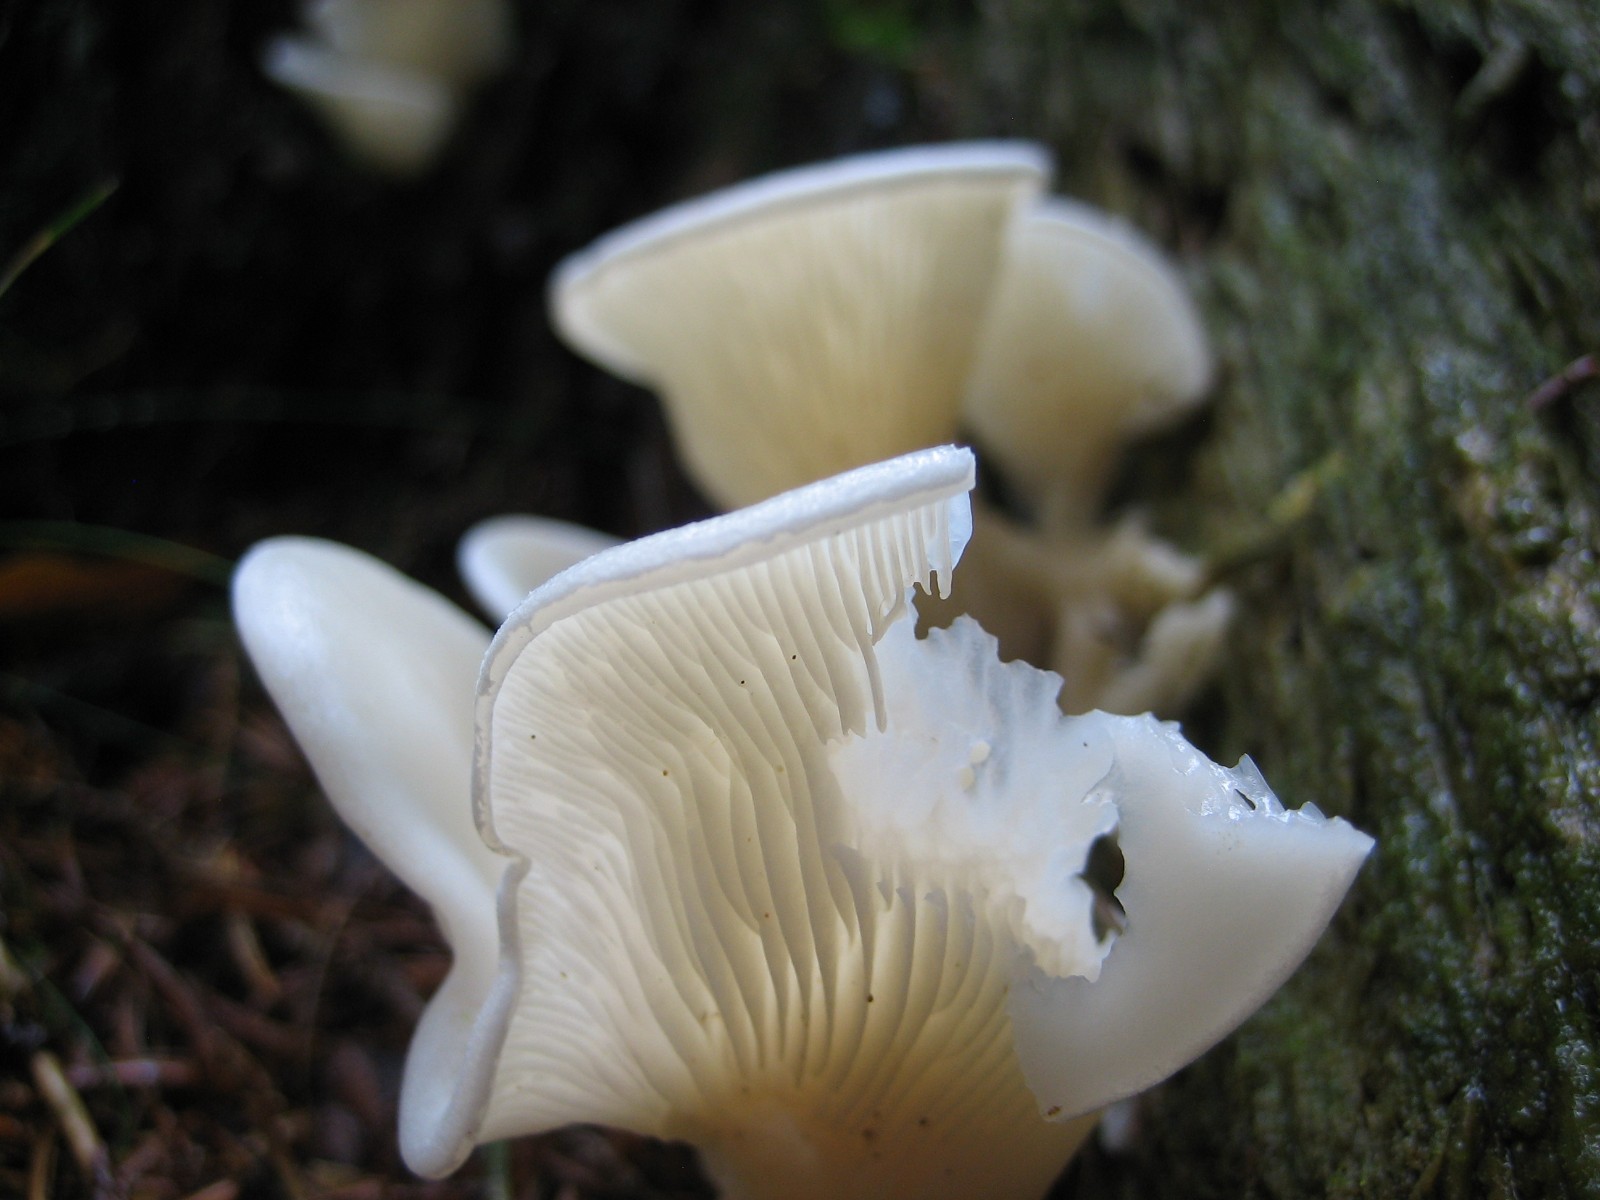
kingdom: Fungi
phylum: Basidiomycota
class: Agaricomycetes
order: Agaricales
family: Marasmiaceae
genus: Pleurocybella
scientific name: Pleurocybella porrigens
